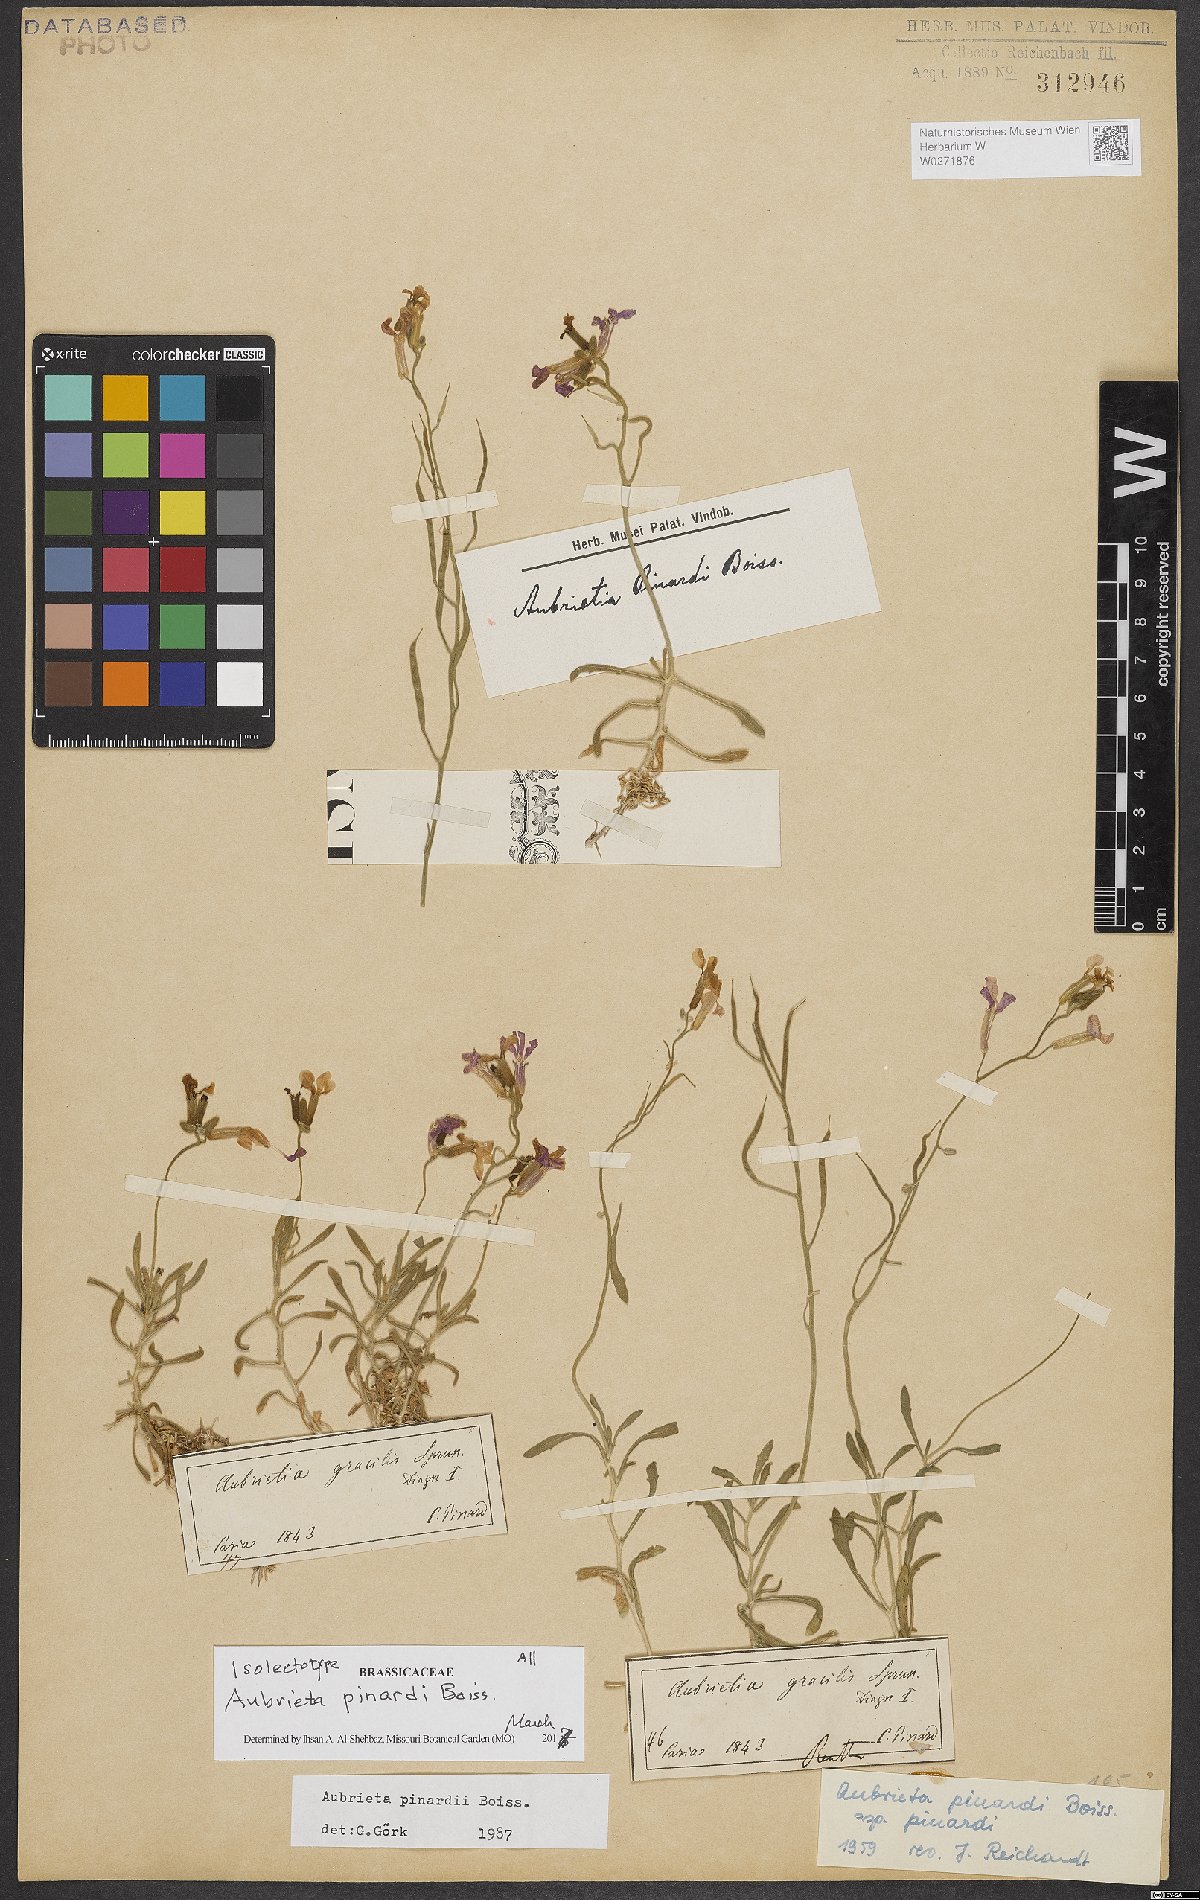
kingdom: Plantae
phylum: Tracheophyta
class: Magnoliopsida
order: Brassicales
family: Brassicaceae
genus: Aubrieta
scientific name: Aubrieta pinardii
